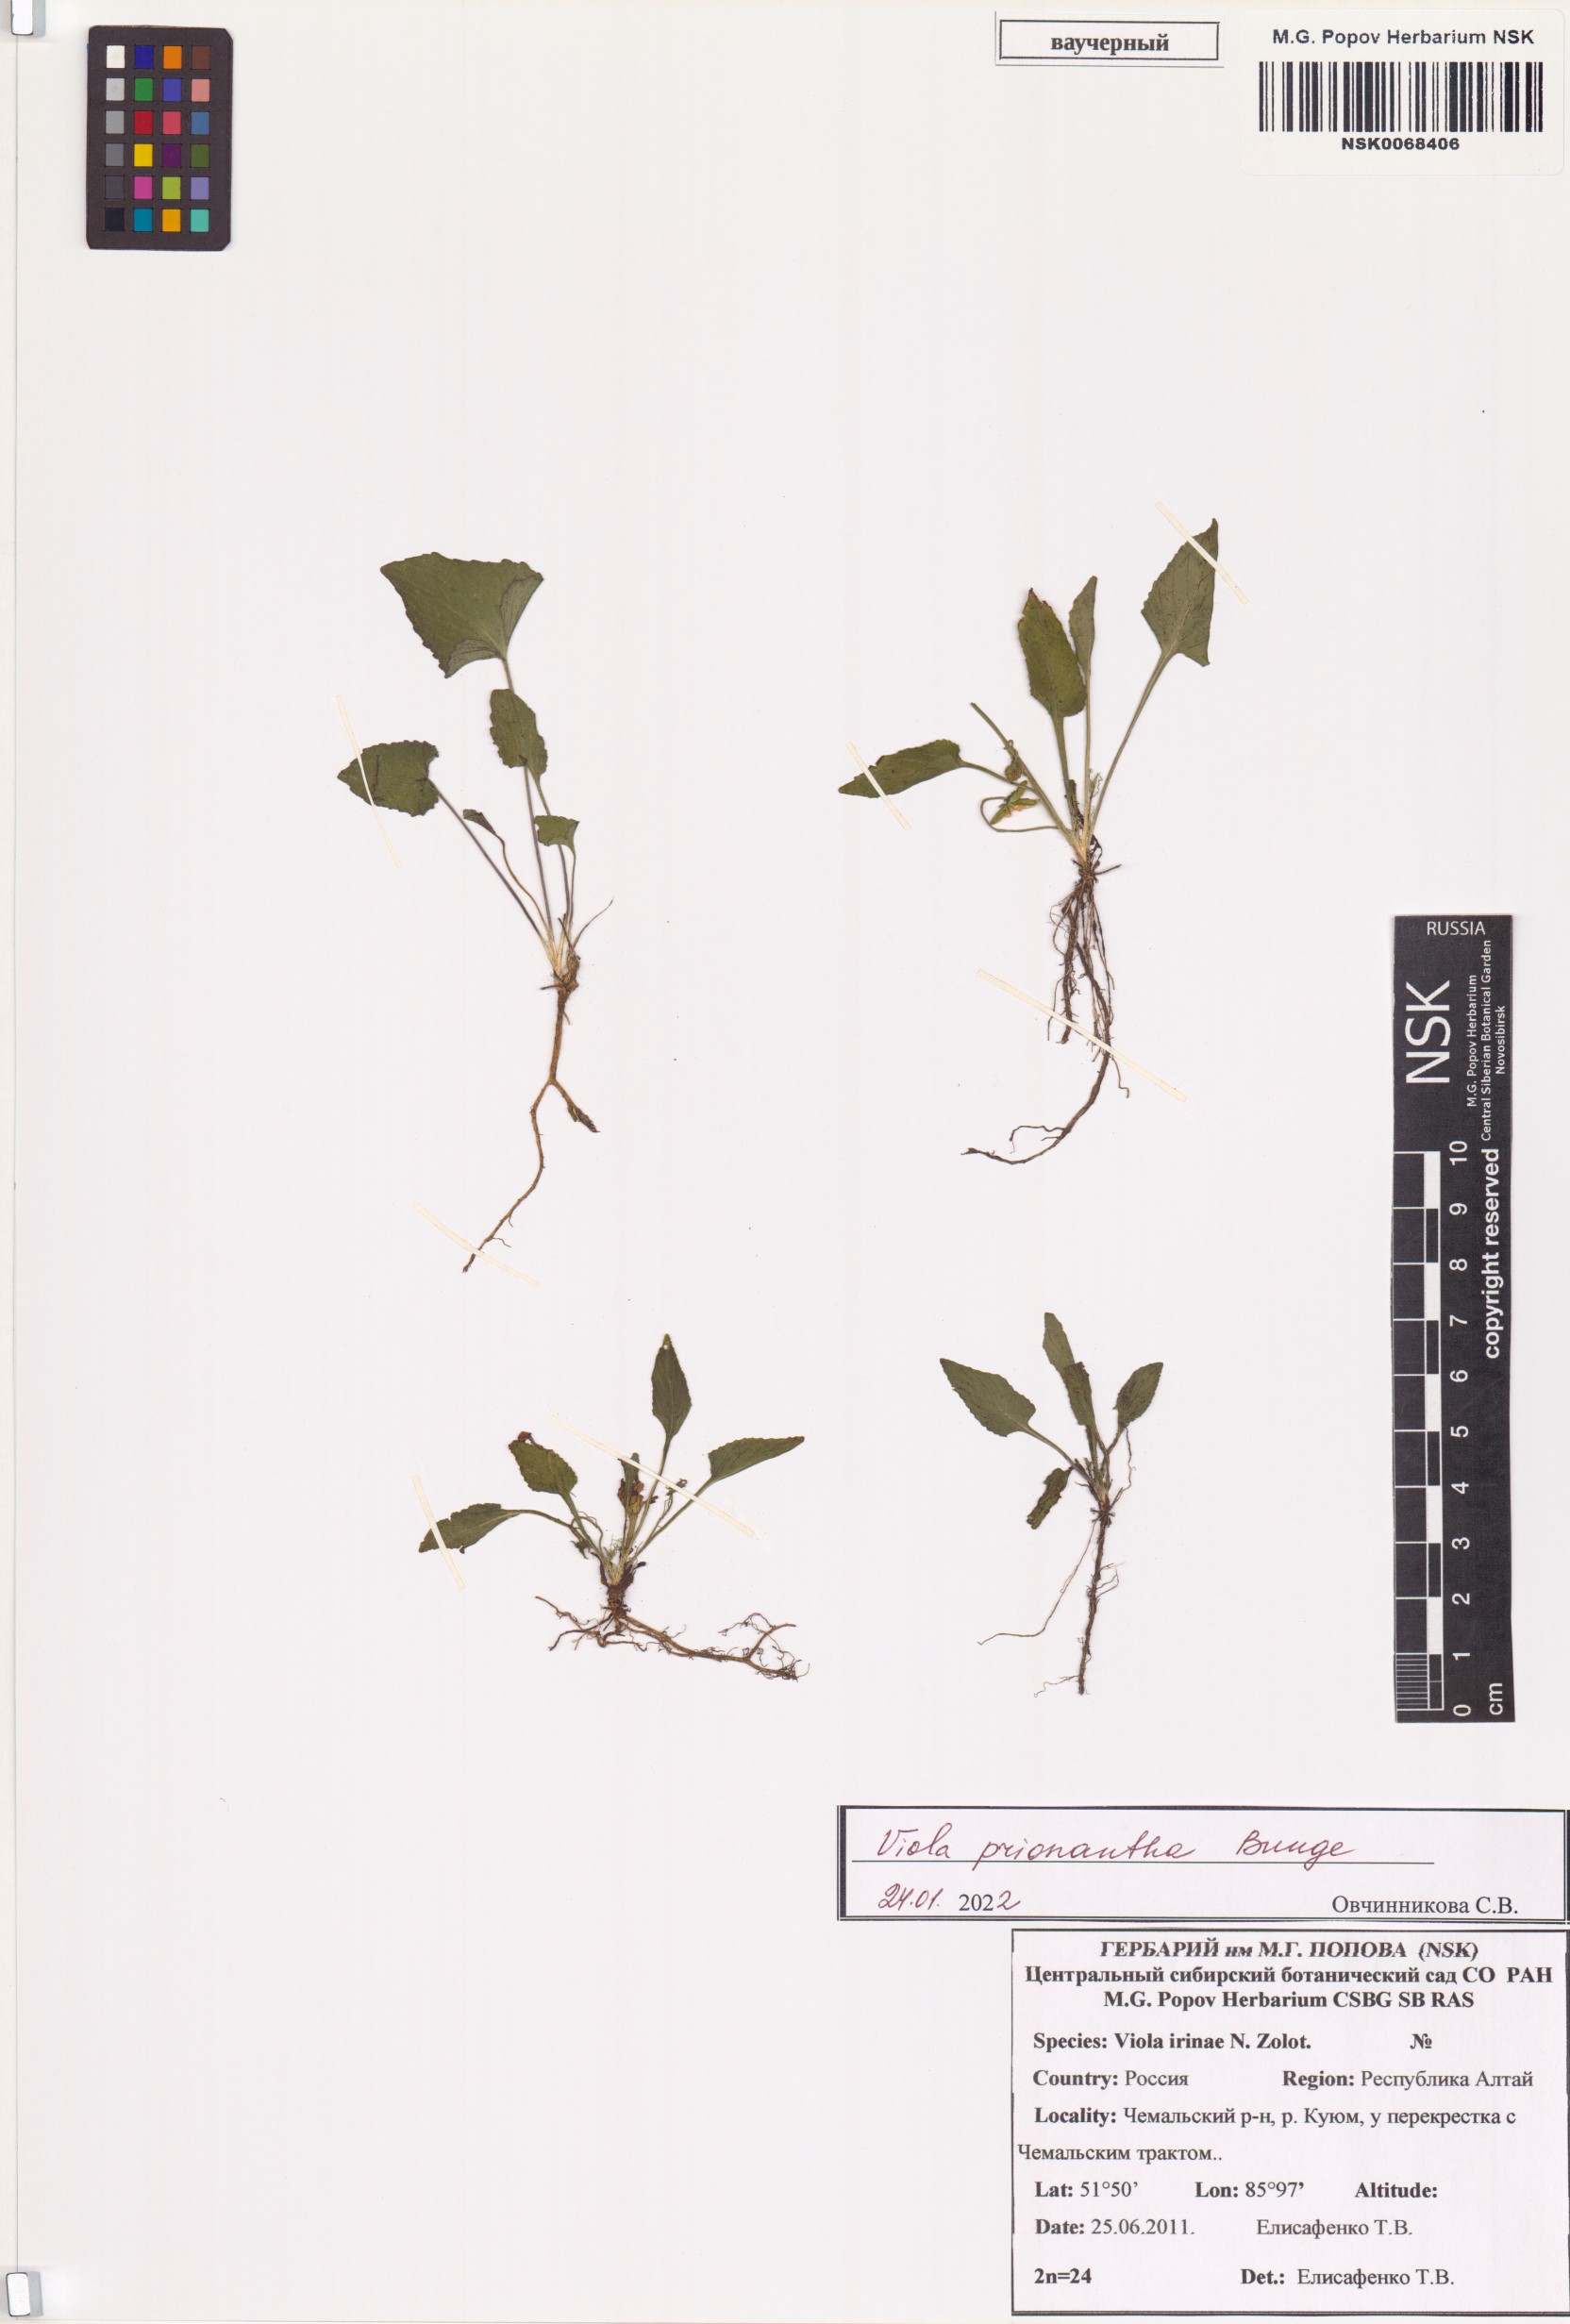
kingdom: Plantae
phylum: Tracheophyta
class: Magnoliopsida
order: Malpighiales
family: Violaceae
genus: Viola
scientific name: Viola prionantha
